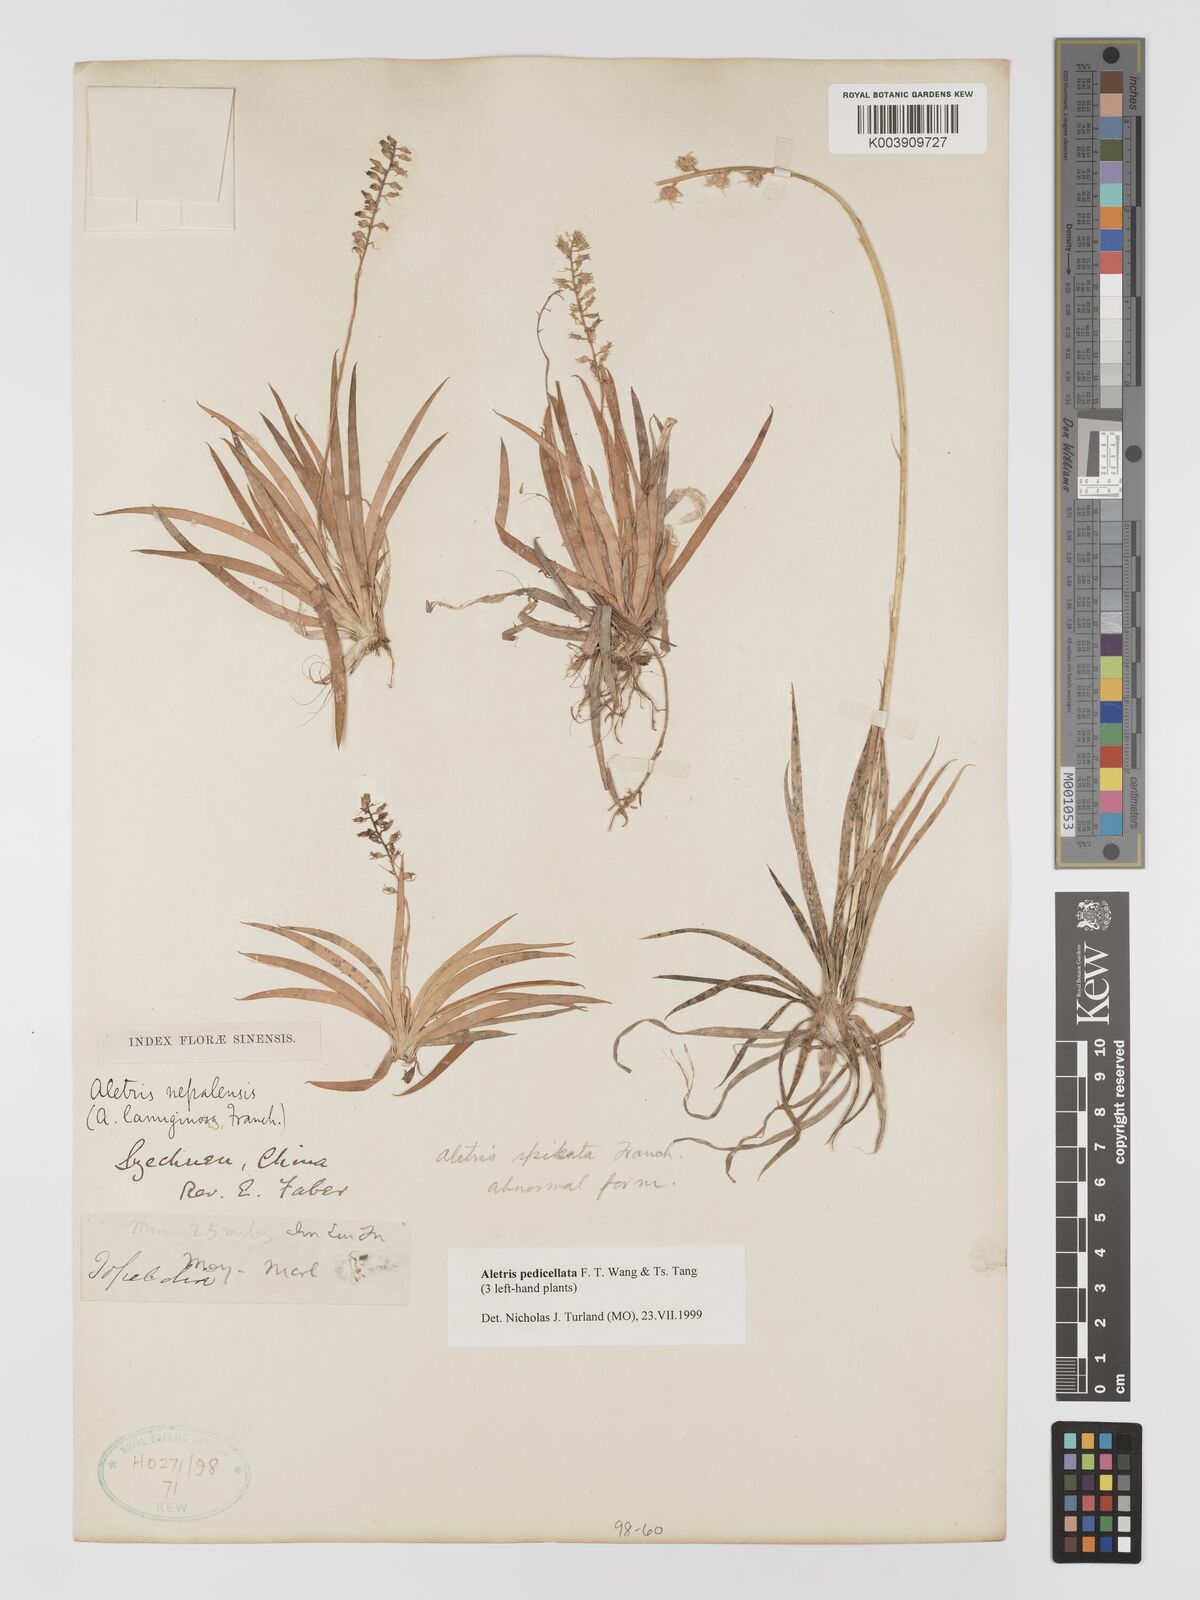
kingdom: Plantae
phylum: Tracheophyta
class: Liliopsida
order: Dioscoreales
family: Nartheciaceae
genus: Aletris
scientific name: Aletris pedicellata
